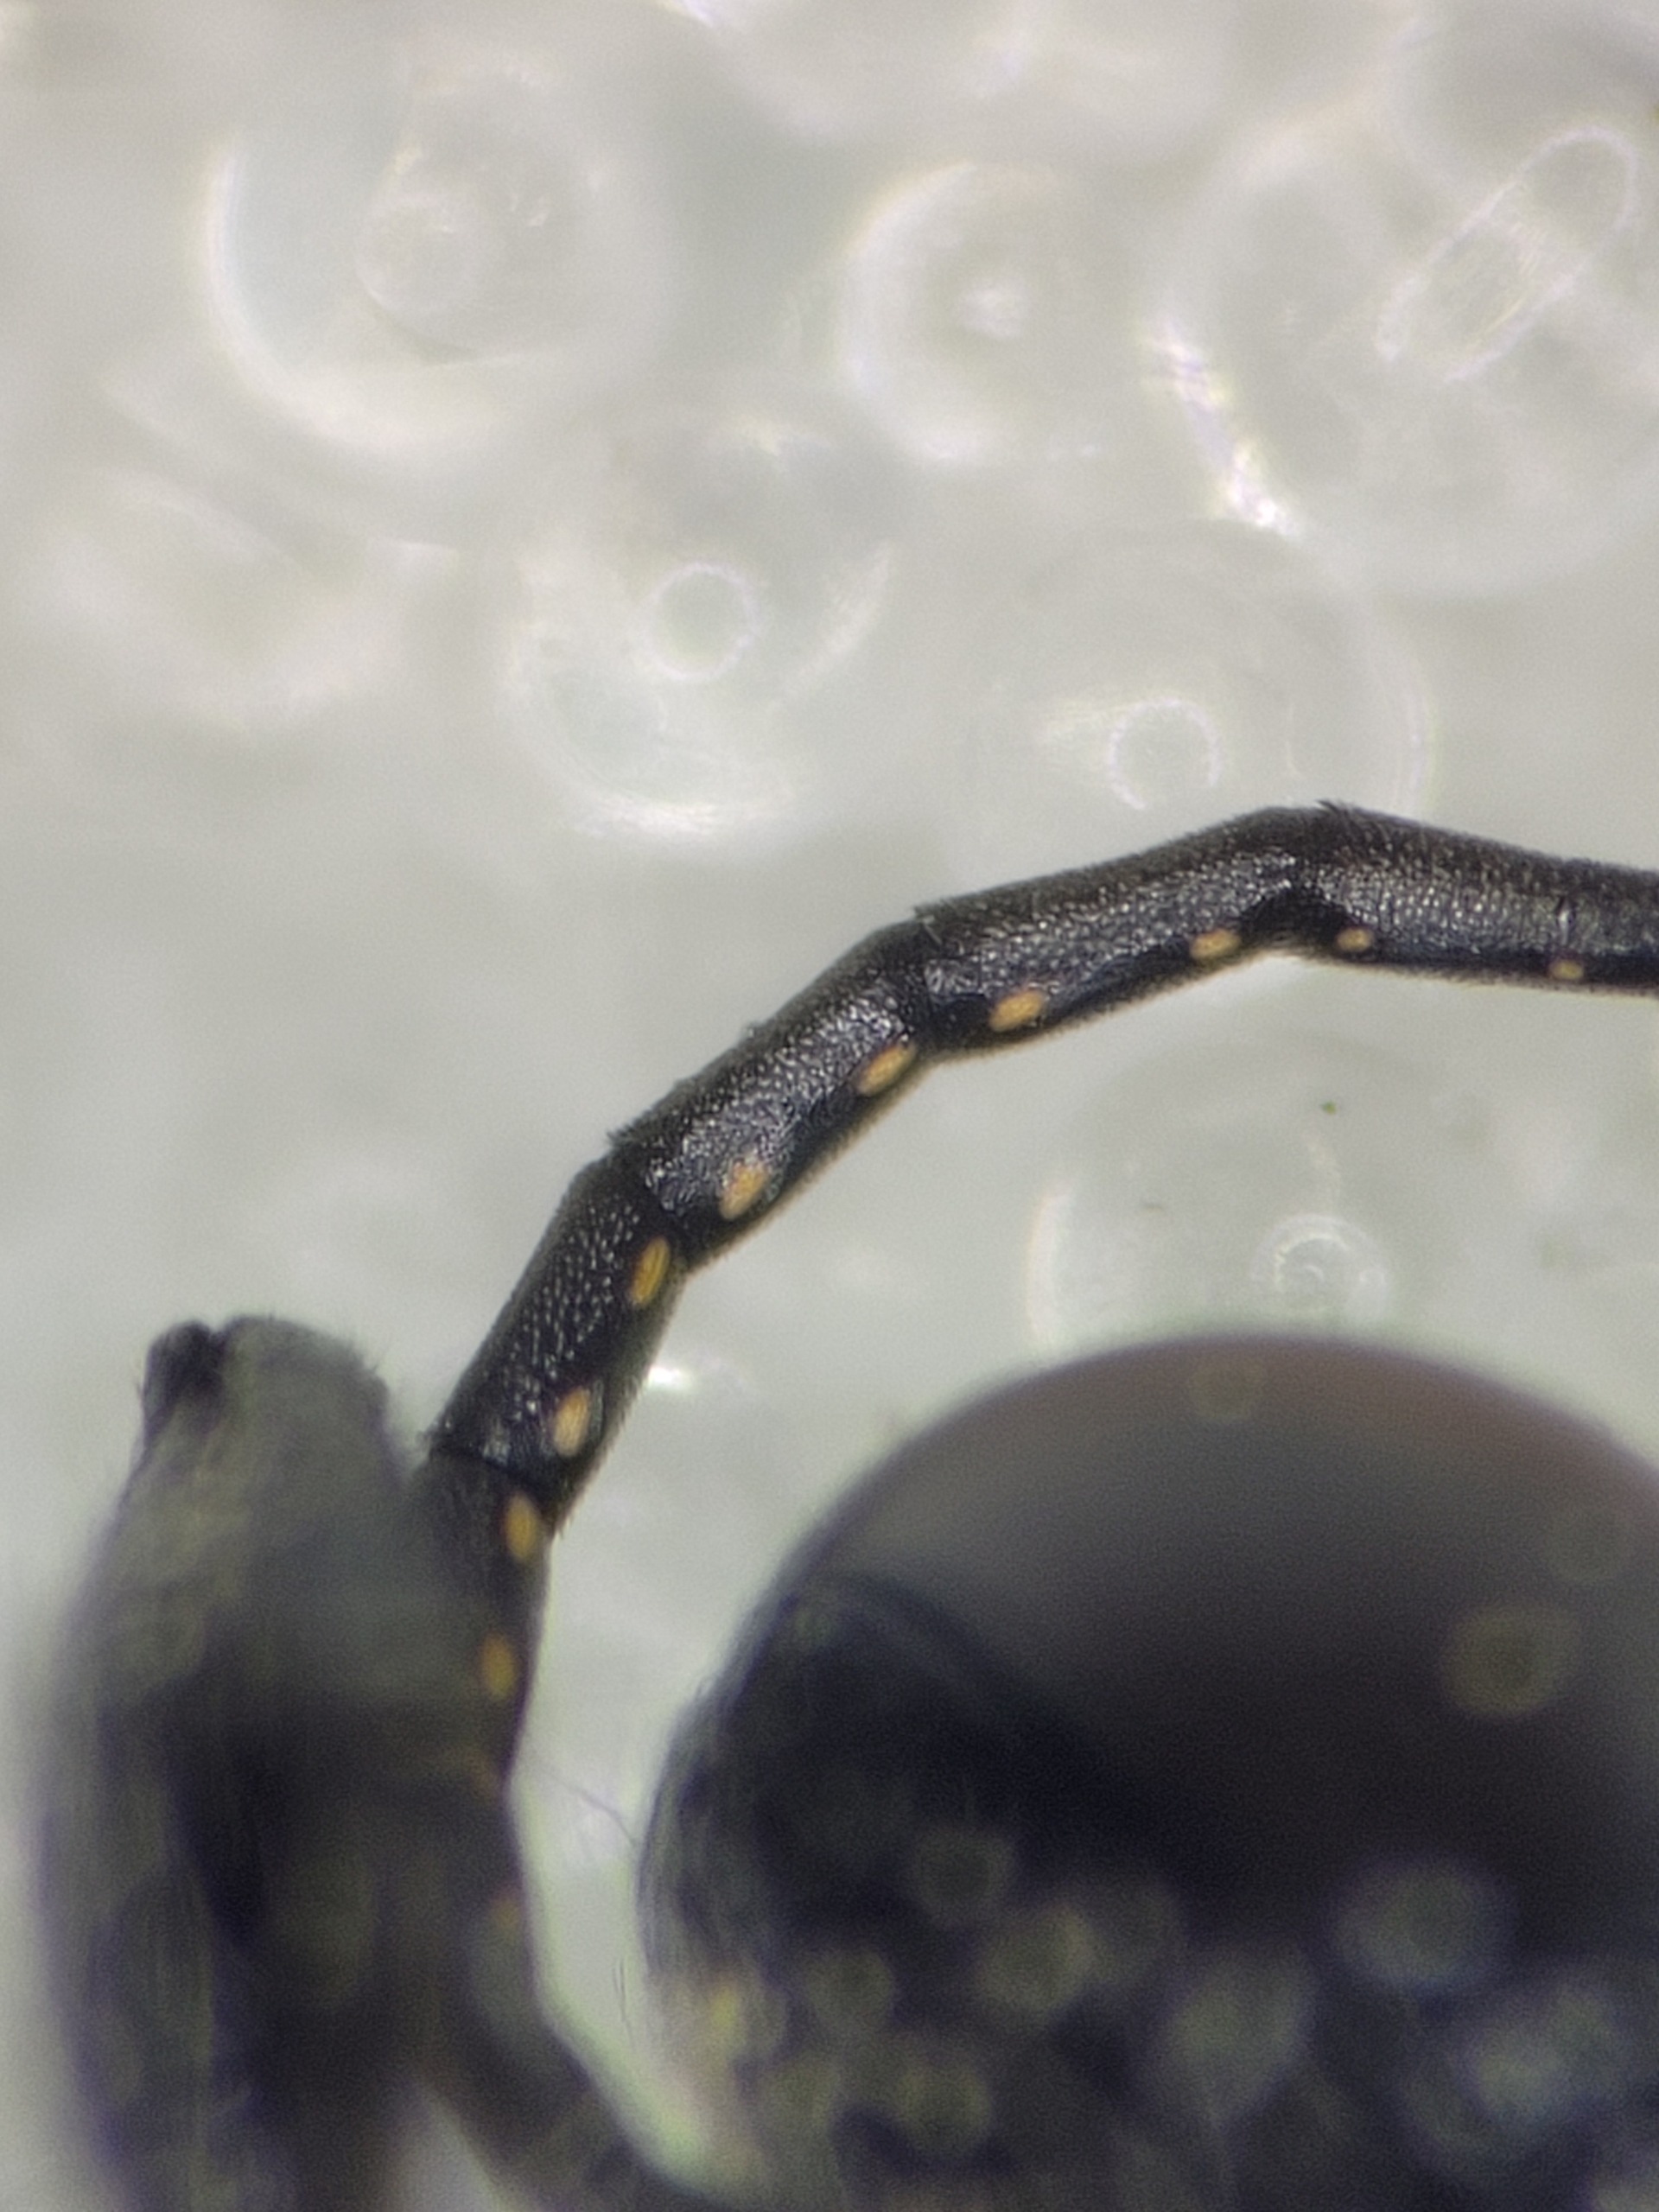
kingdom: Animalia
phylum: Arthropoda
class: Insecta
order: Hymenoptera
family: Crabronidae
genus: Astata
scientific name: Astata boops
